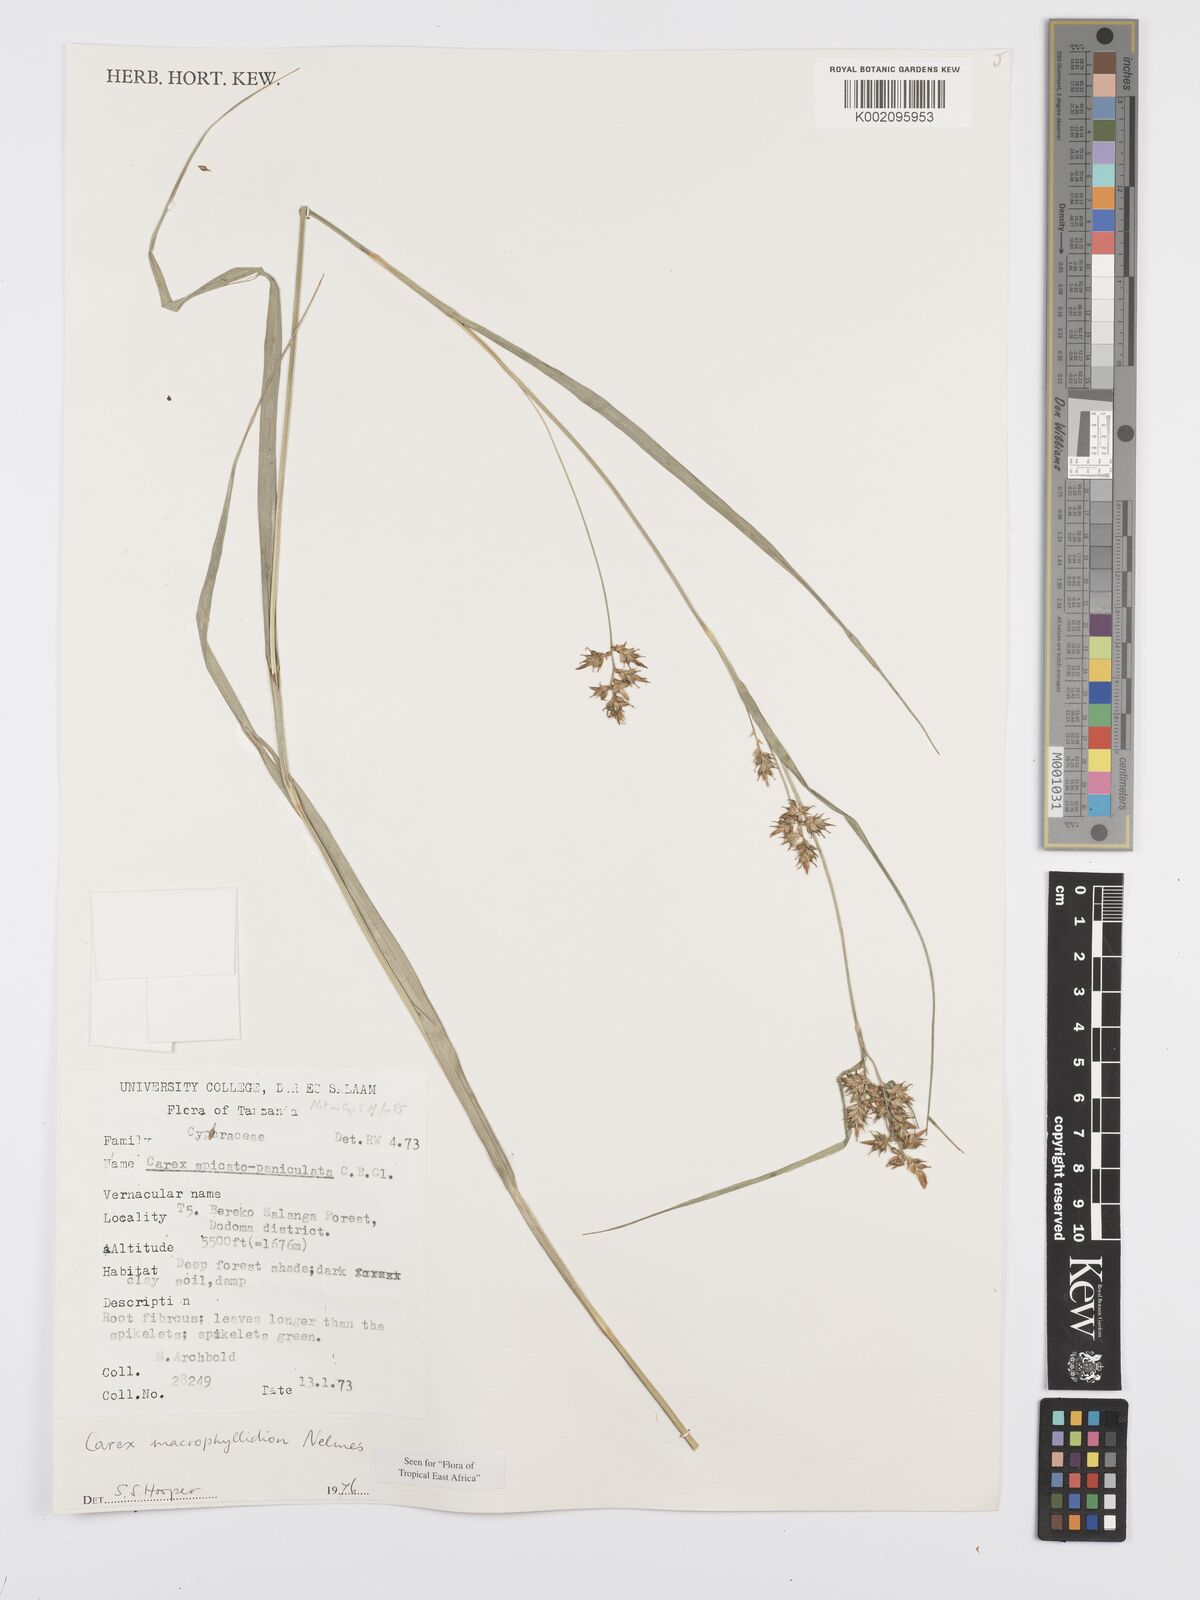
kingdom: Plantae
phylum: Tracheophyta
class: Liliopsida
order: Poales
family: Cyperaceae
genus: Carex
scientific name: Carex macrophyllidion
